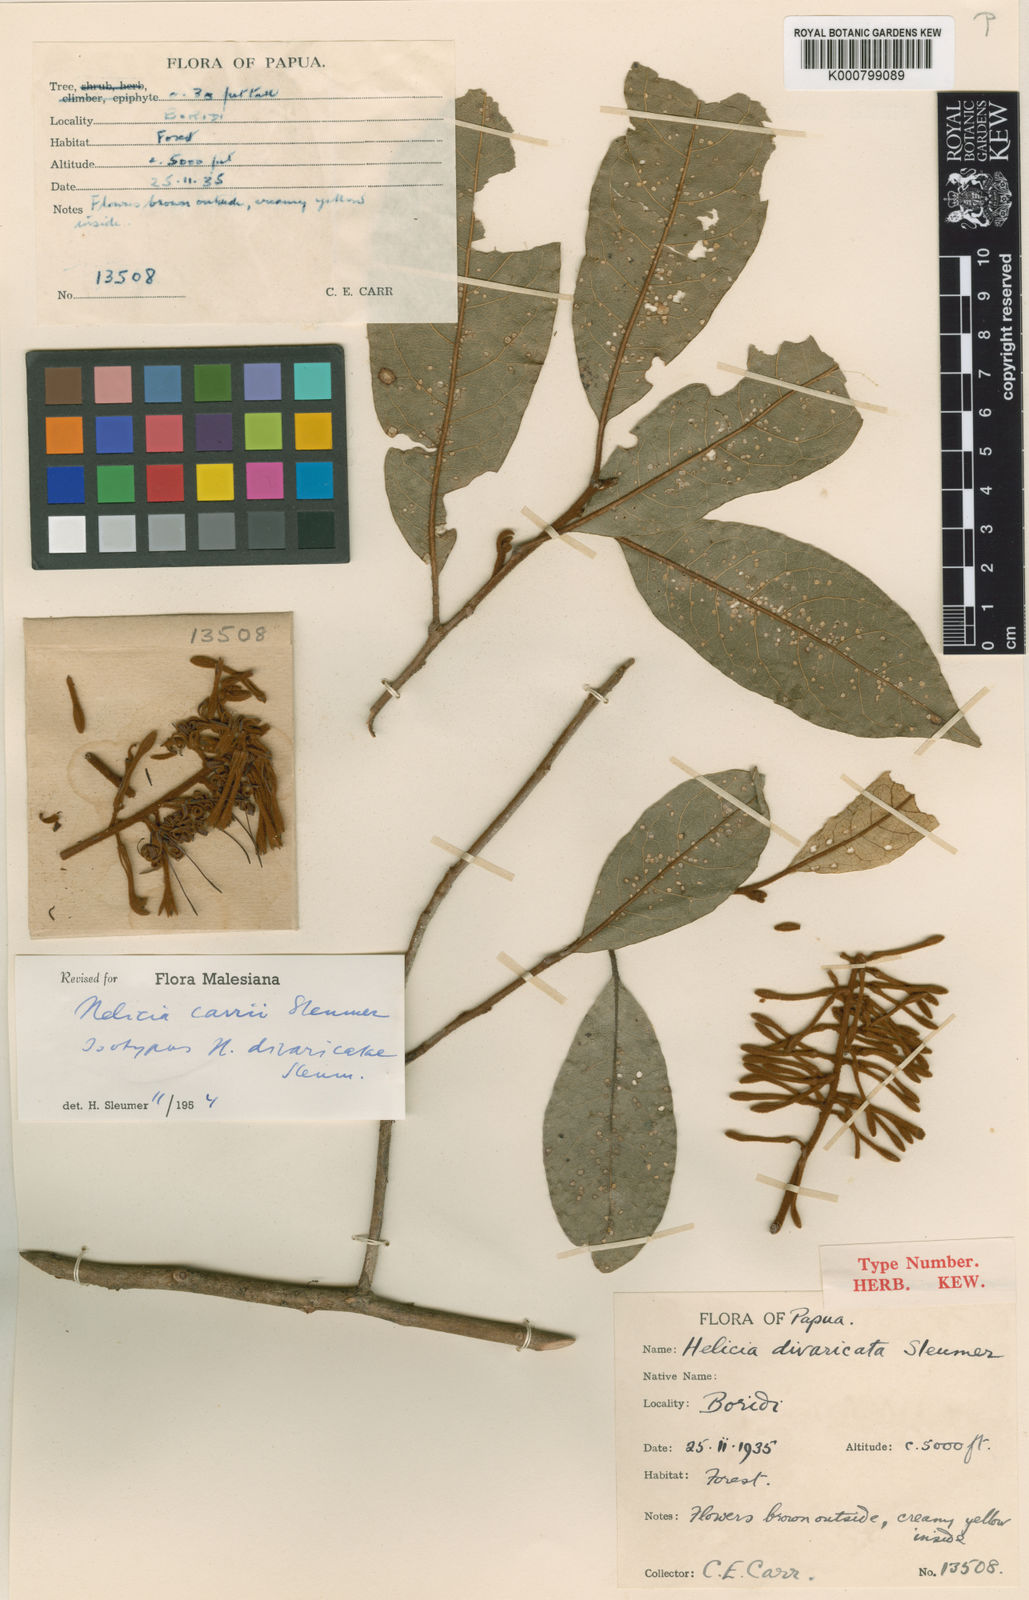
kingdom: Plantae
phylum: Tracheophyta
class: Magnoliopsida
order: Proteales
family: Proteaceae
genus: Helicia
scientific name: Helicia carrii
